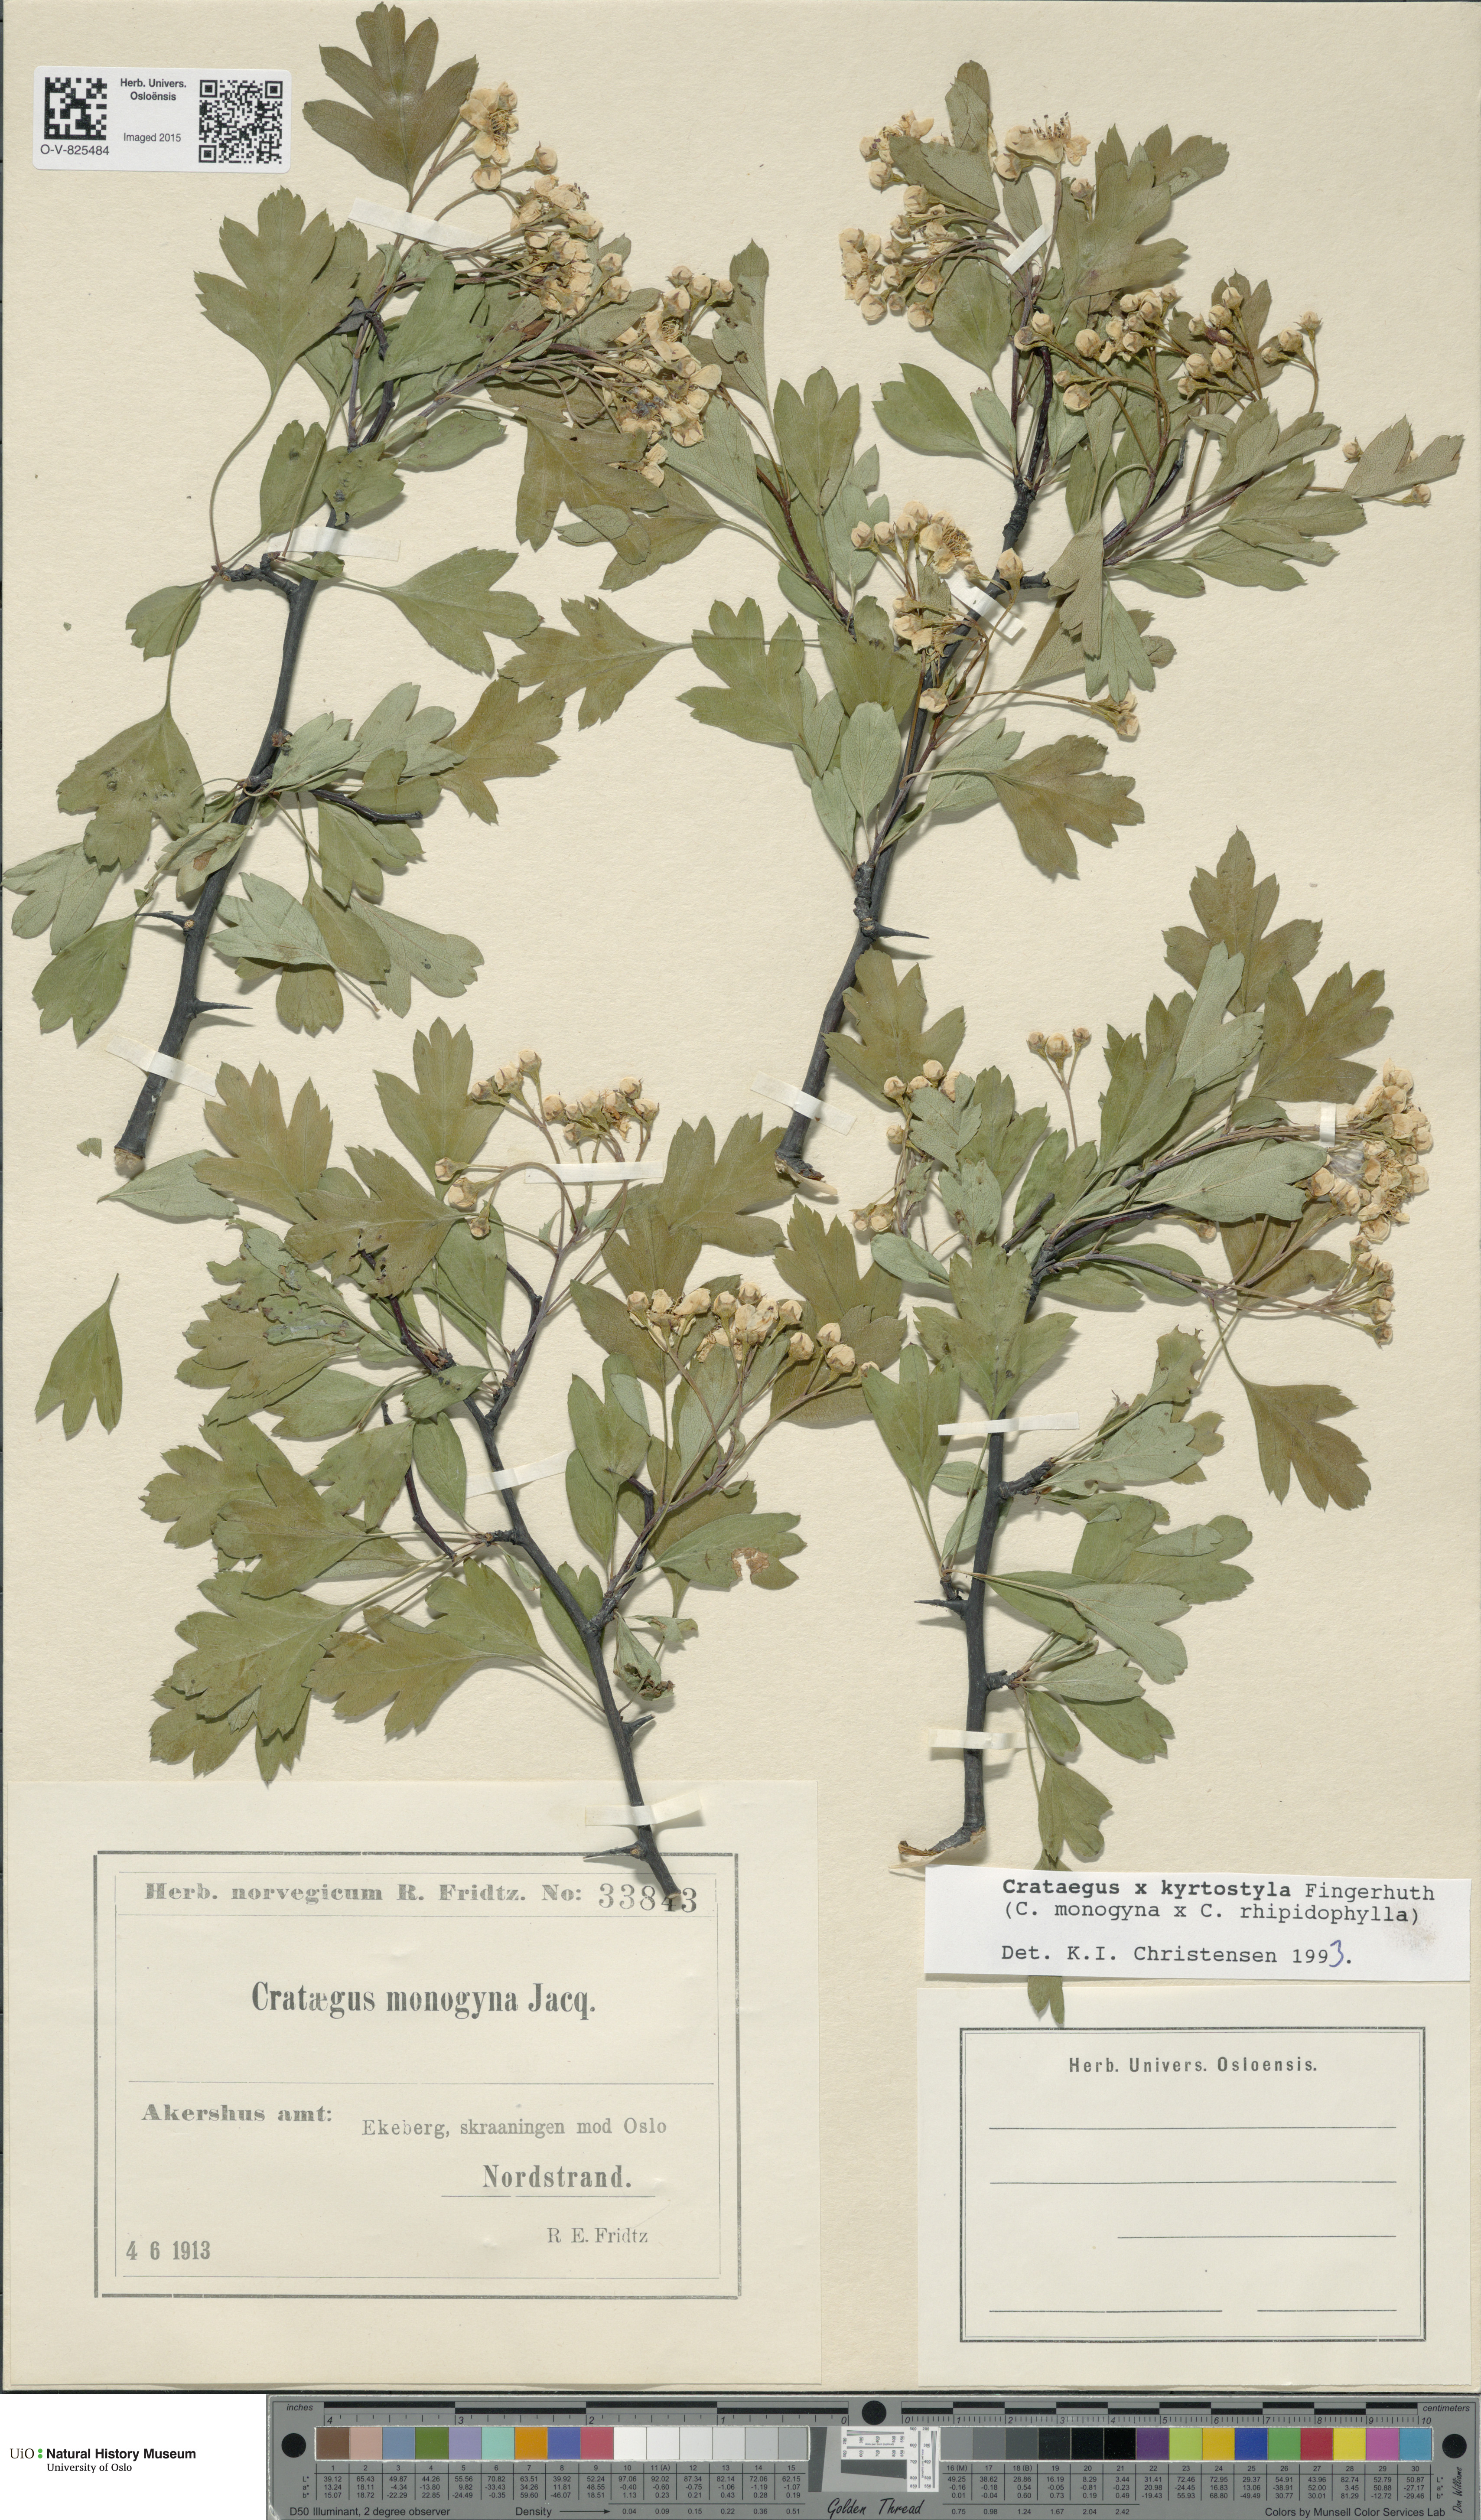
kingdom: Plantae
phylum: Tracheophyta
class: Magnoliopsida
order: Rosales
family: Rosaceae
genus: Crataegus
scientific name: Crataegus kyrtostyla
